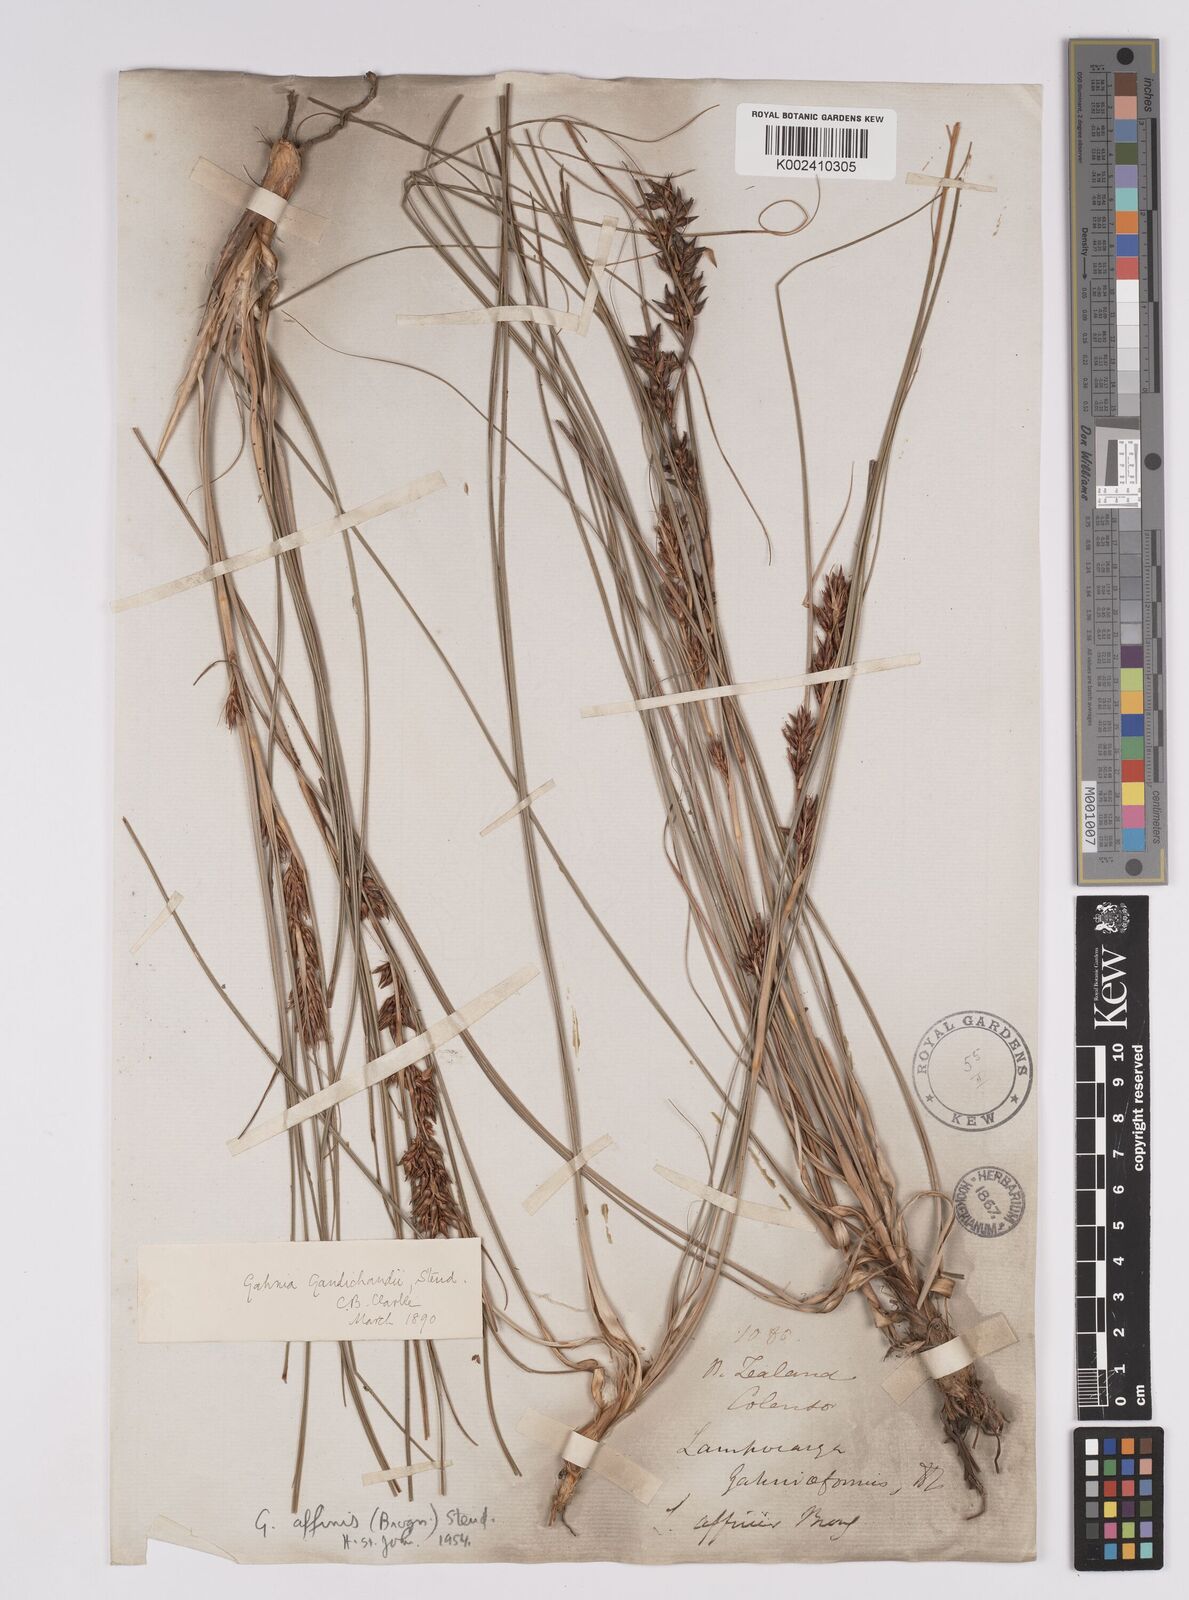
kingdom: Plantae
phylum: Tracheophyta
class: Liliopsida
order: Poales
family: Cyperaceae
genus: Morelotia
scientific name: Morelotia affinis
